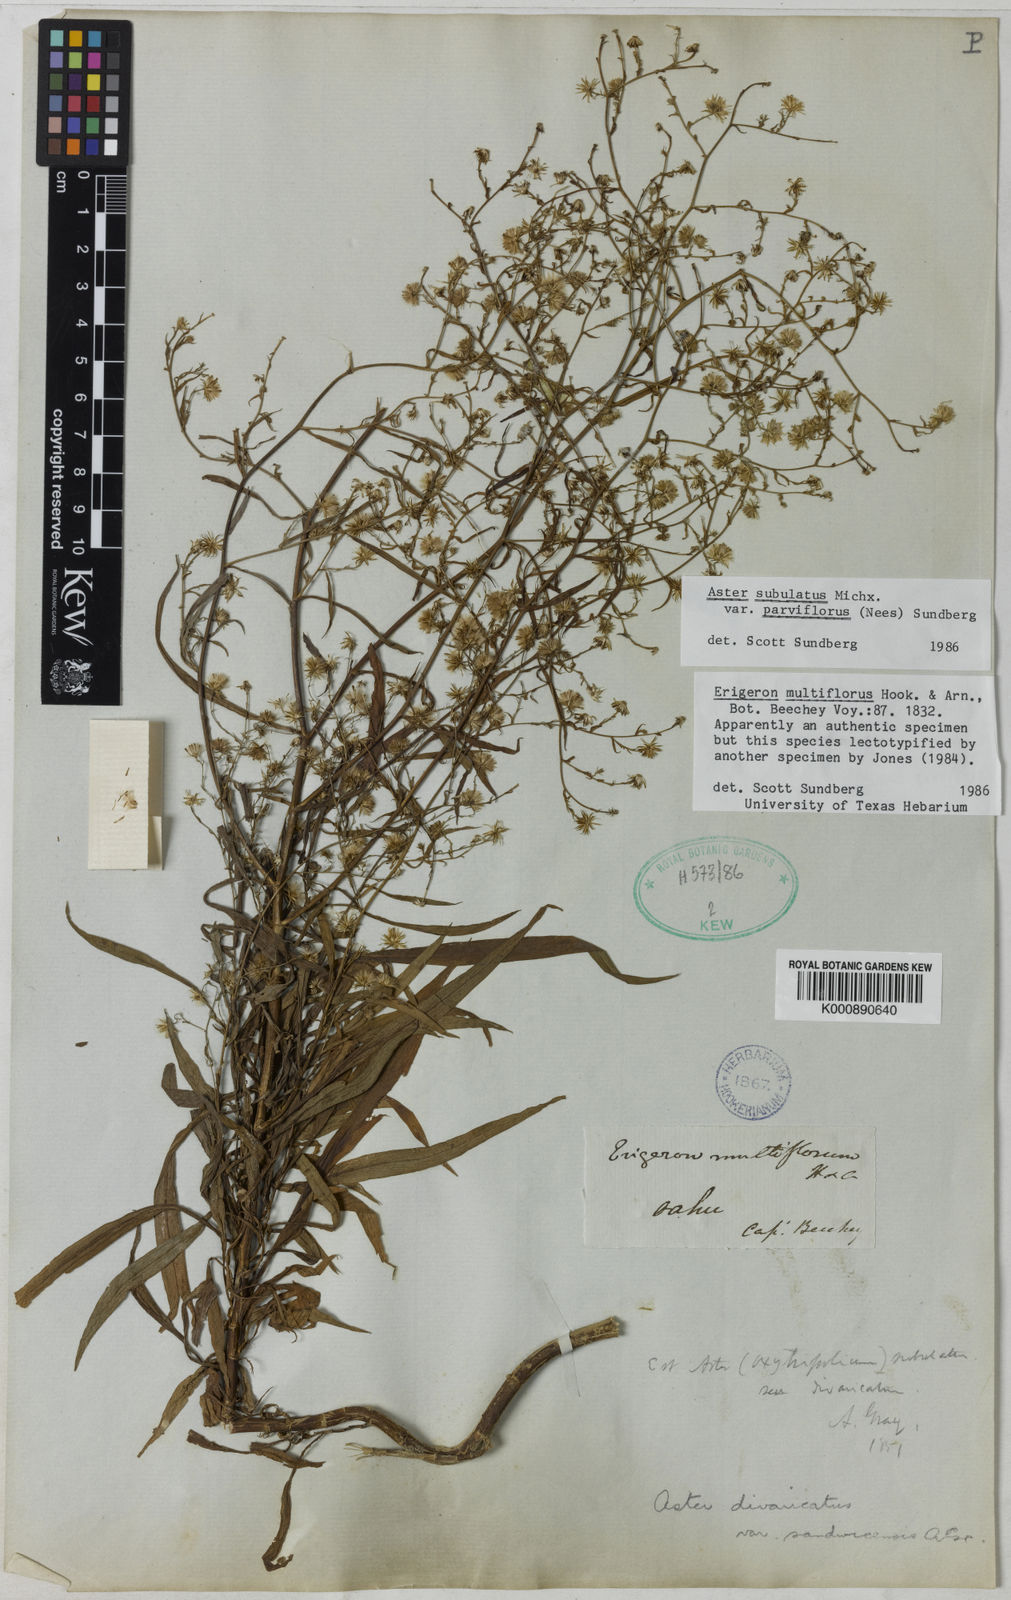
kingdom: Plantae
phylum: Tracheophyta
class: Magnoliopsida
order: Asterales
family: Asteraceae
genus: Symphyotrichum
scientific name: Symphyotrichum squamatum
